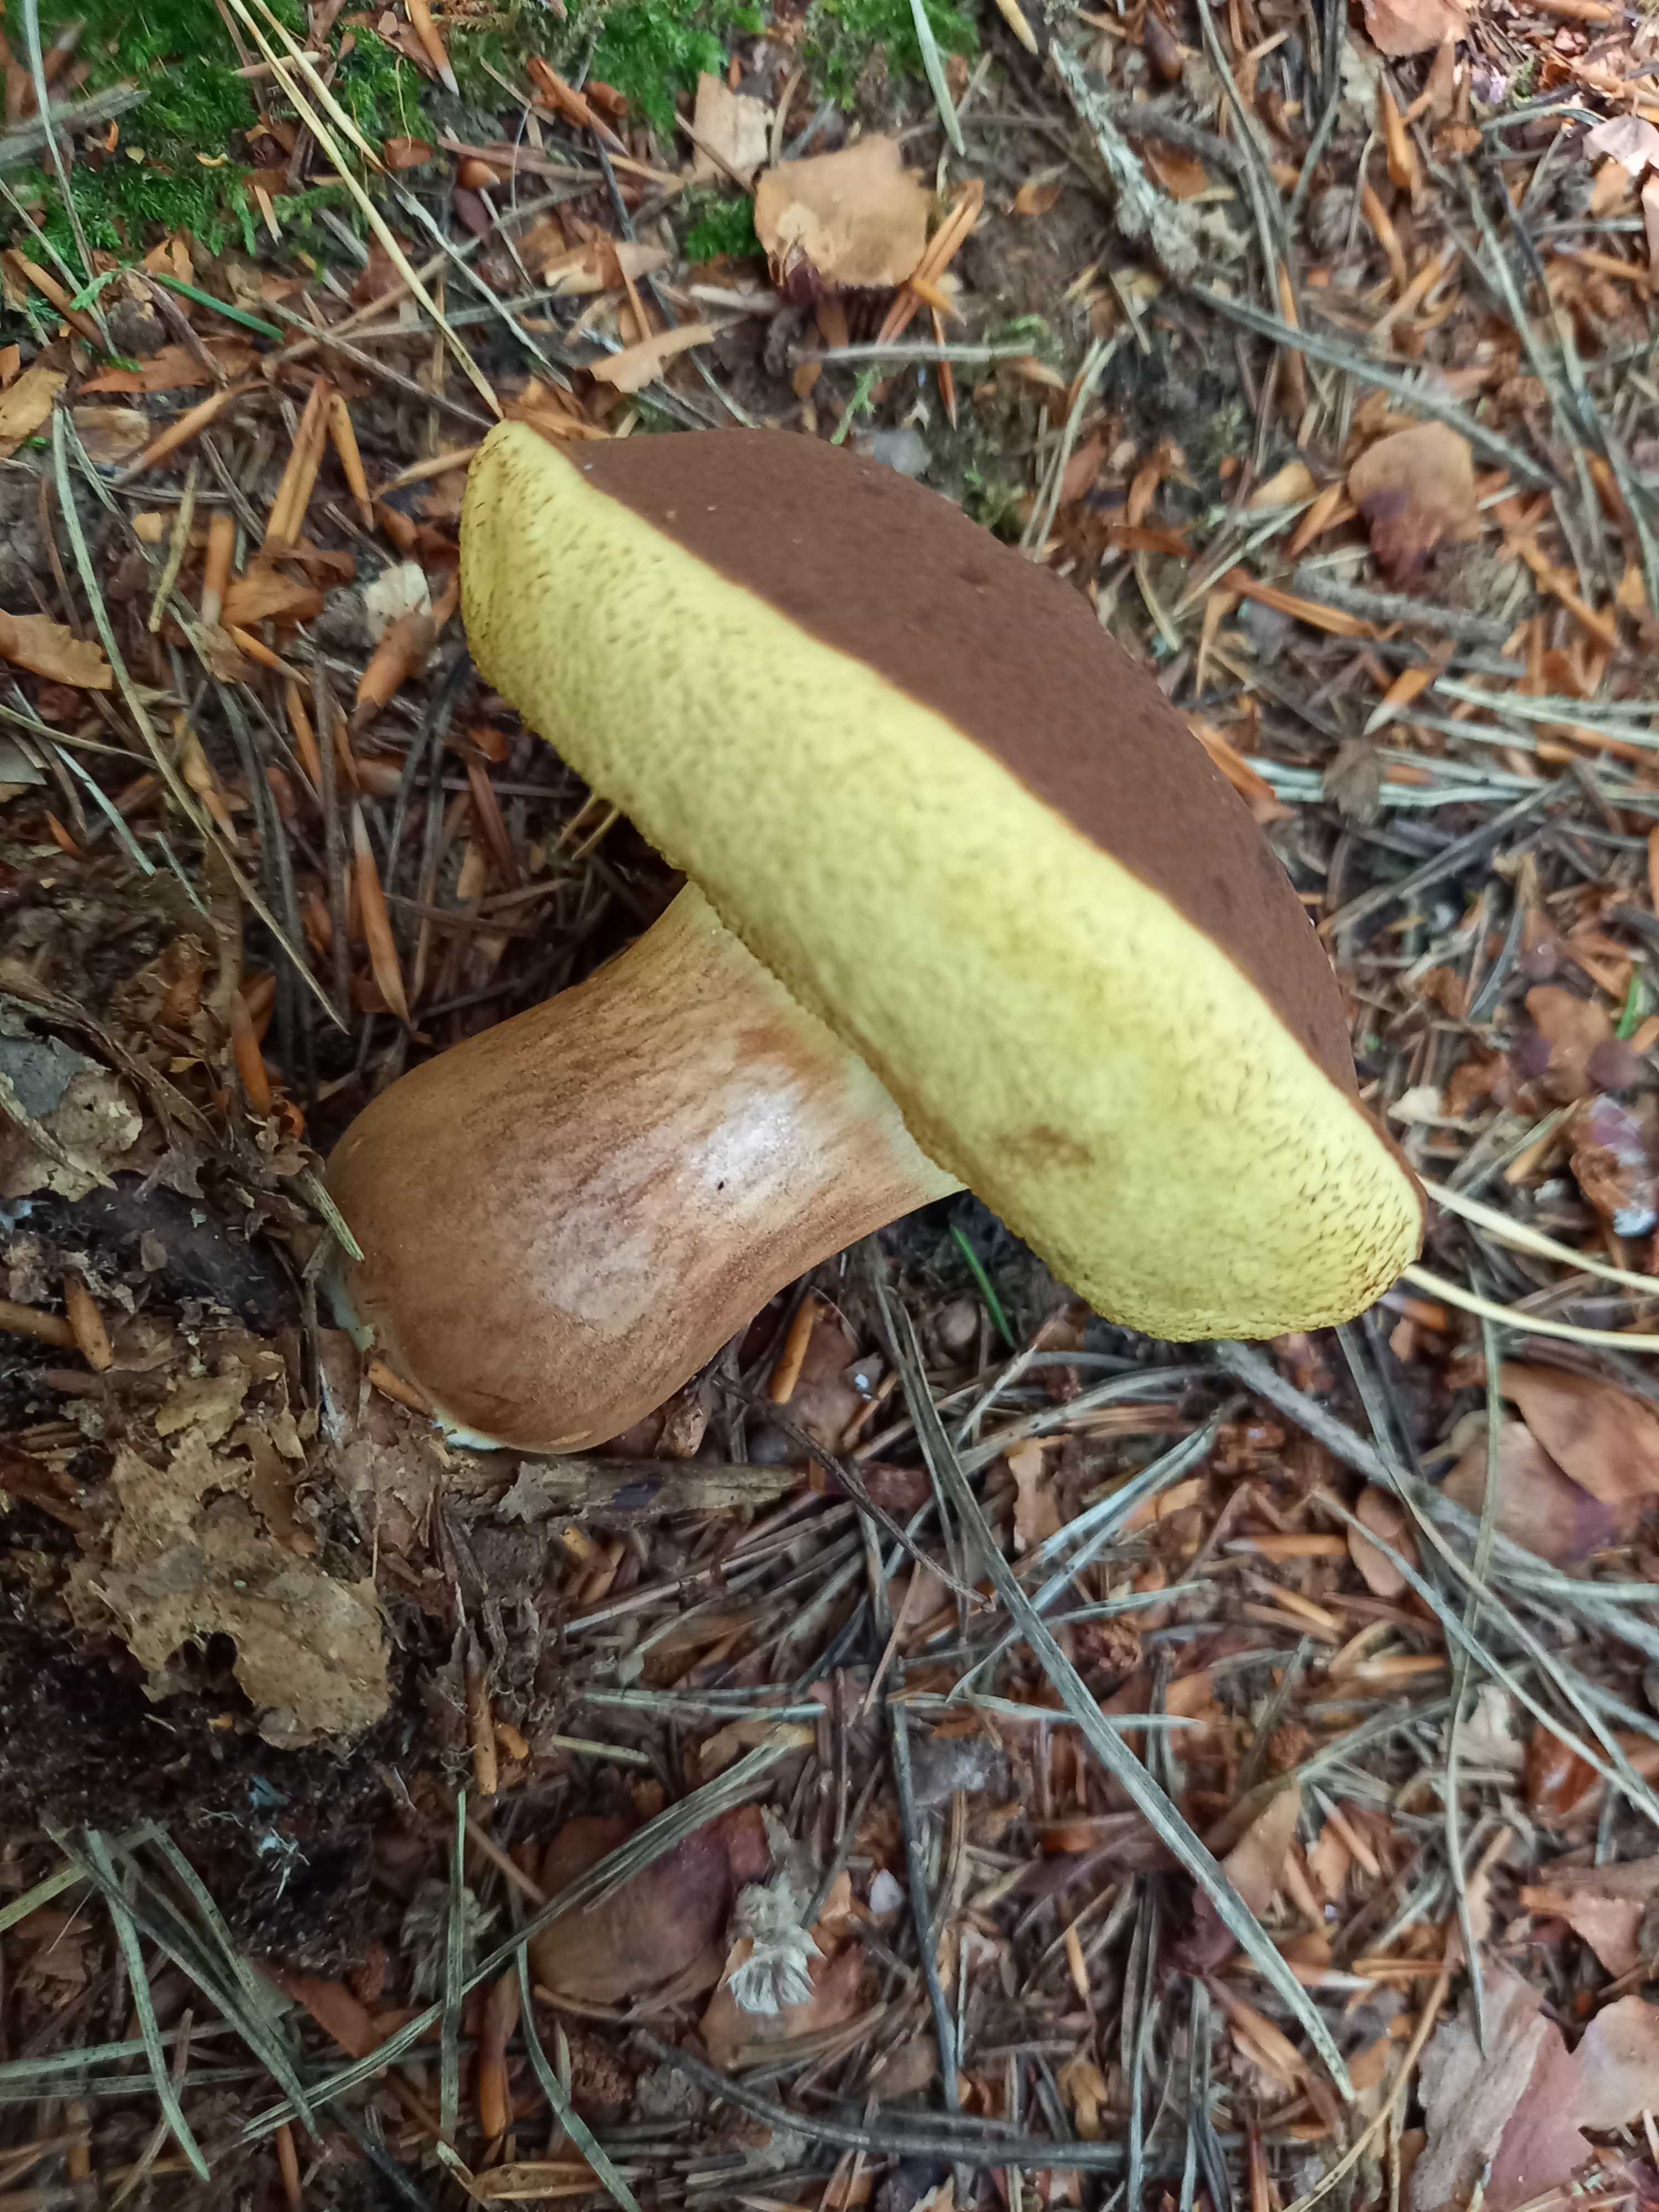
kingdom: Fungi
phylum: Basidiomycota
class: Agaricomycetes
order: Boletales
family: Boletaceae
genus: Imleria
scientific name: Imleria badia
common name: brunstokket rørhat
